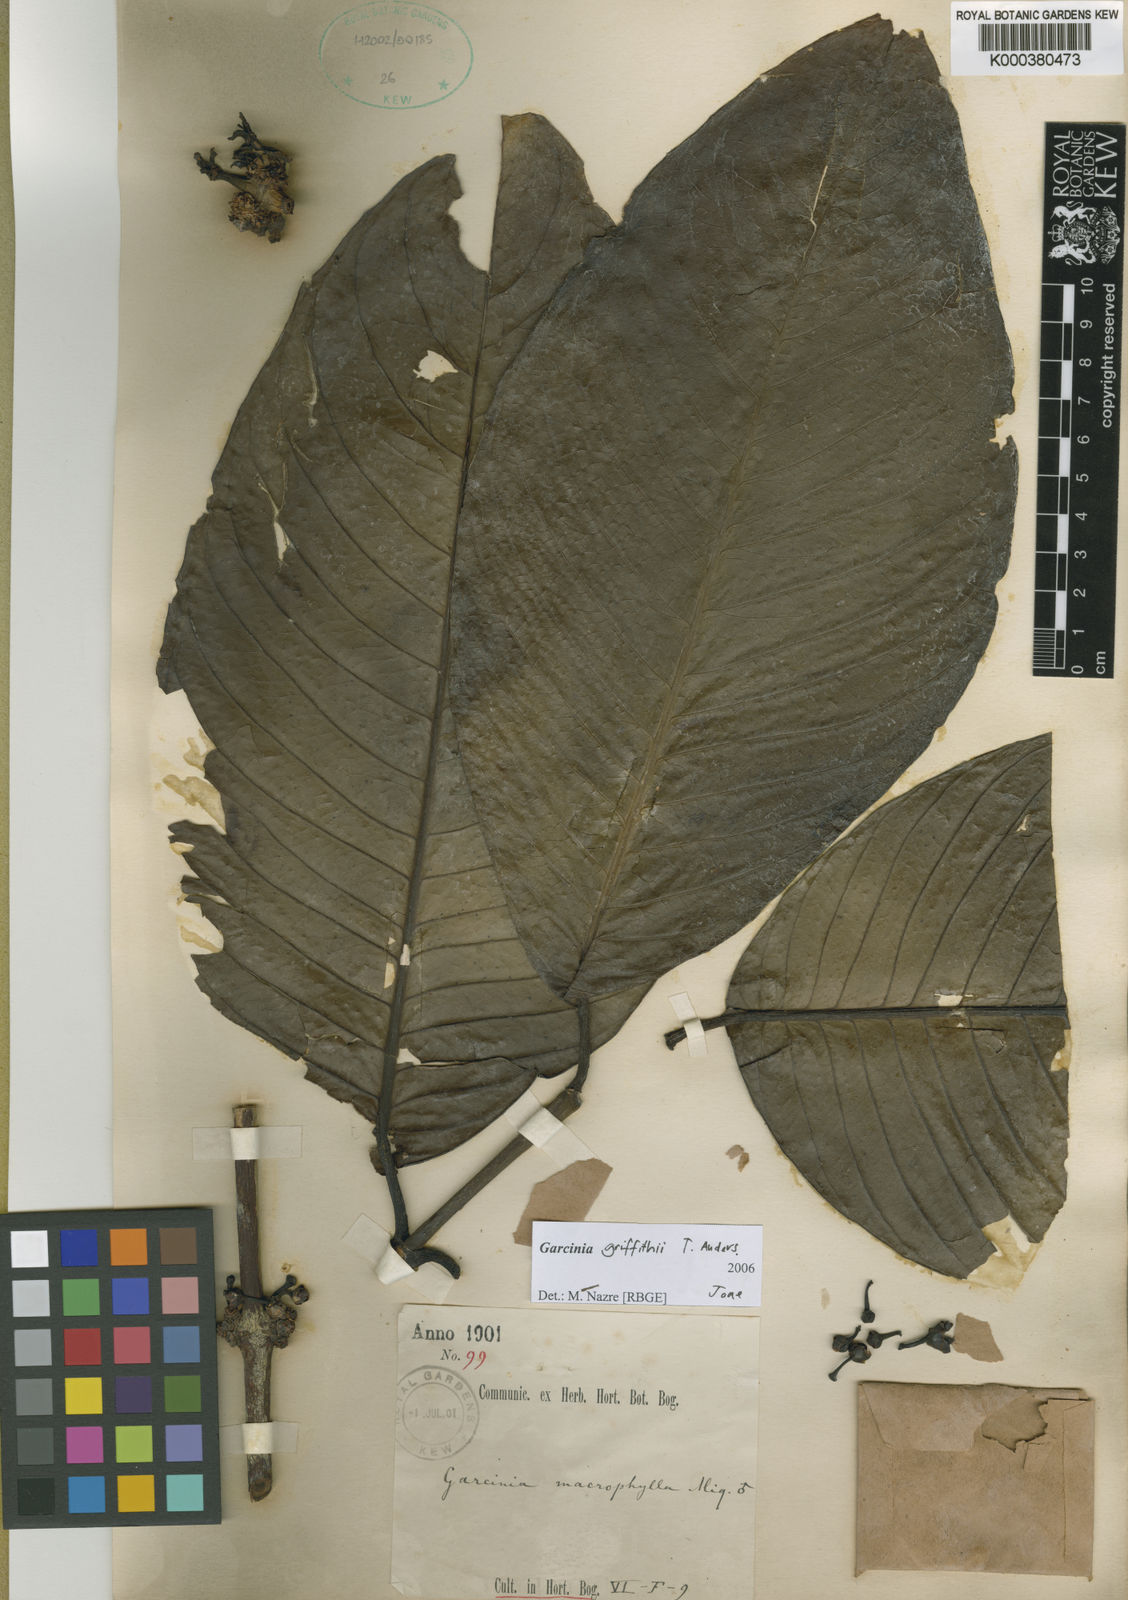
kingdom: Plantae
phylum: Tracheophyta
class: Magnoliopsida
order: Malpighiales
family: Clusiaceae
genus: Garcinia
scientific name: Garcinia griffithii
